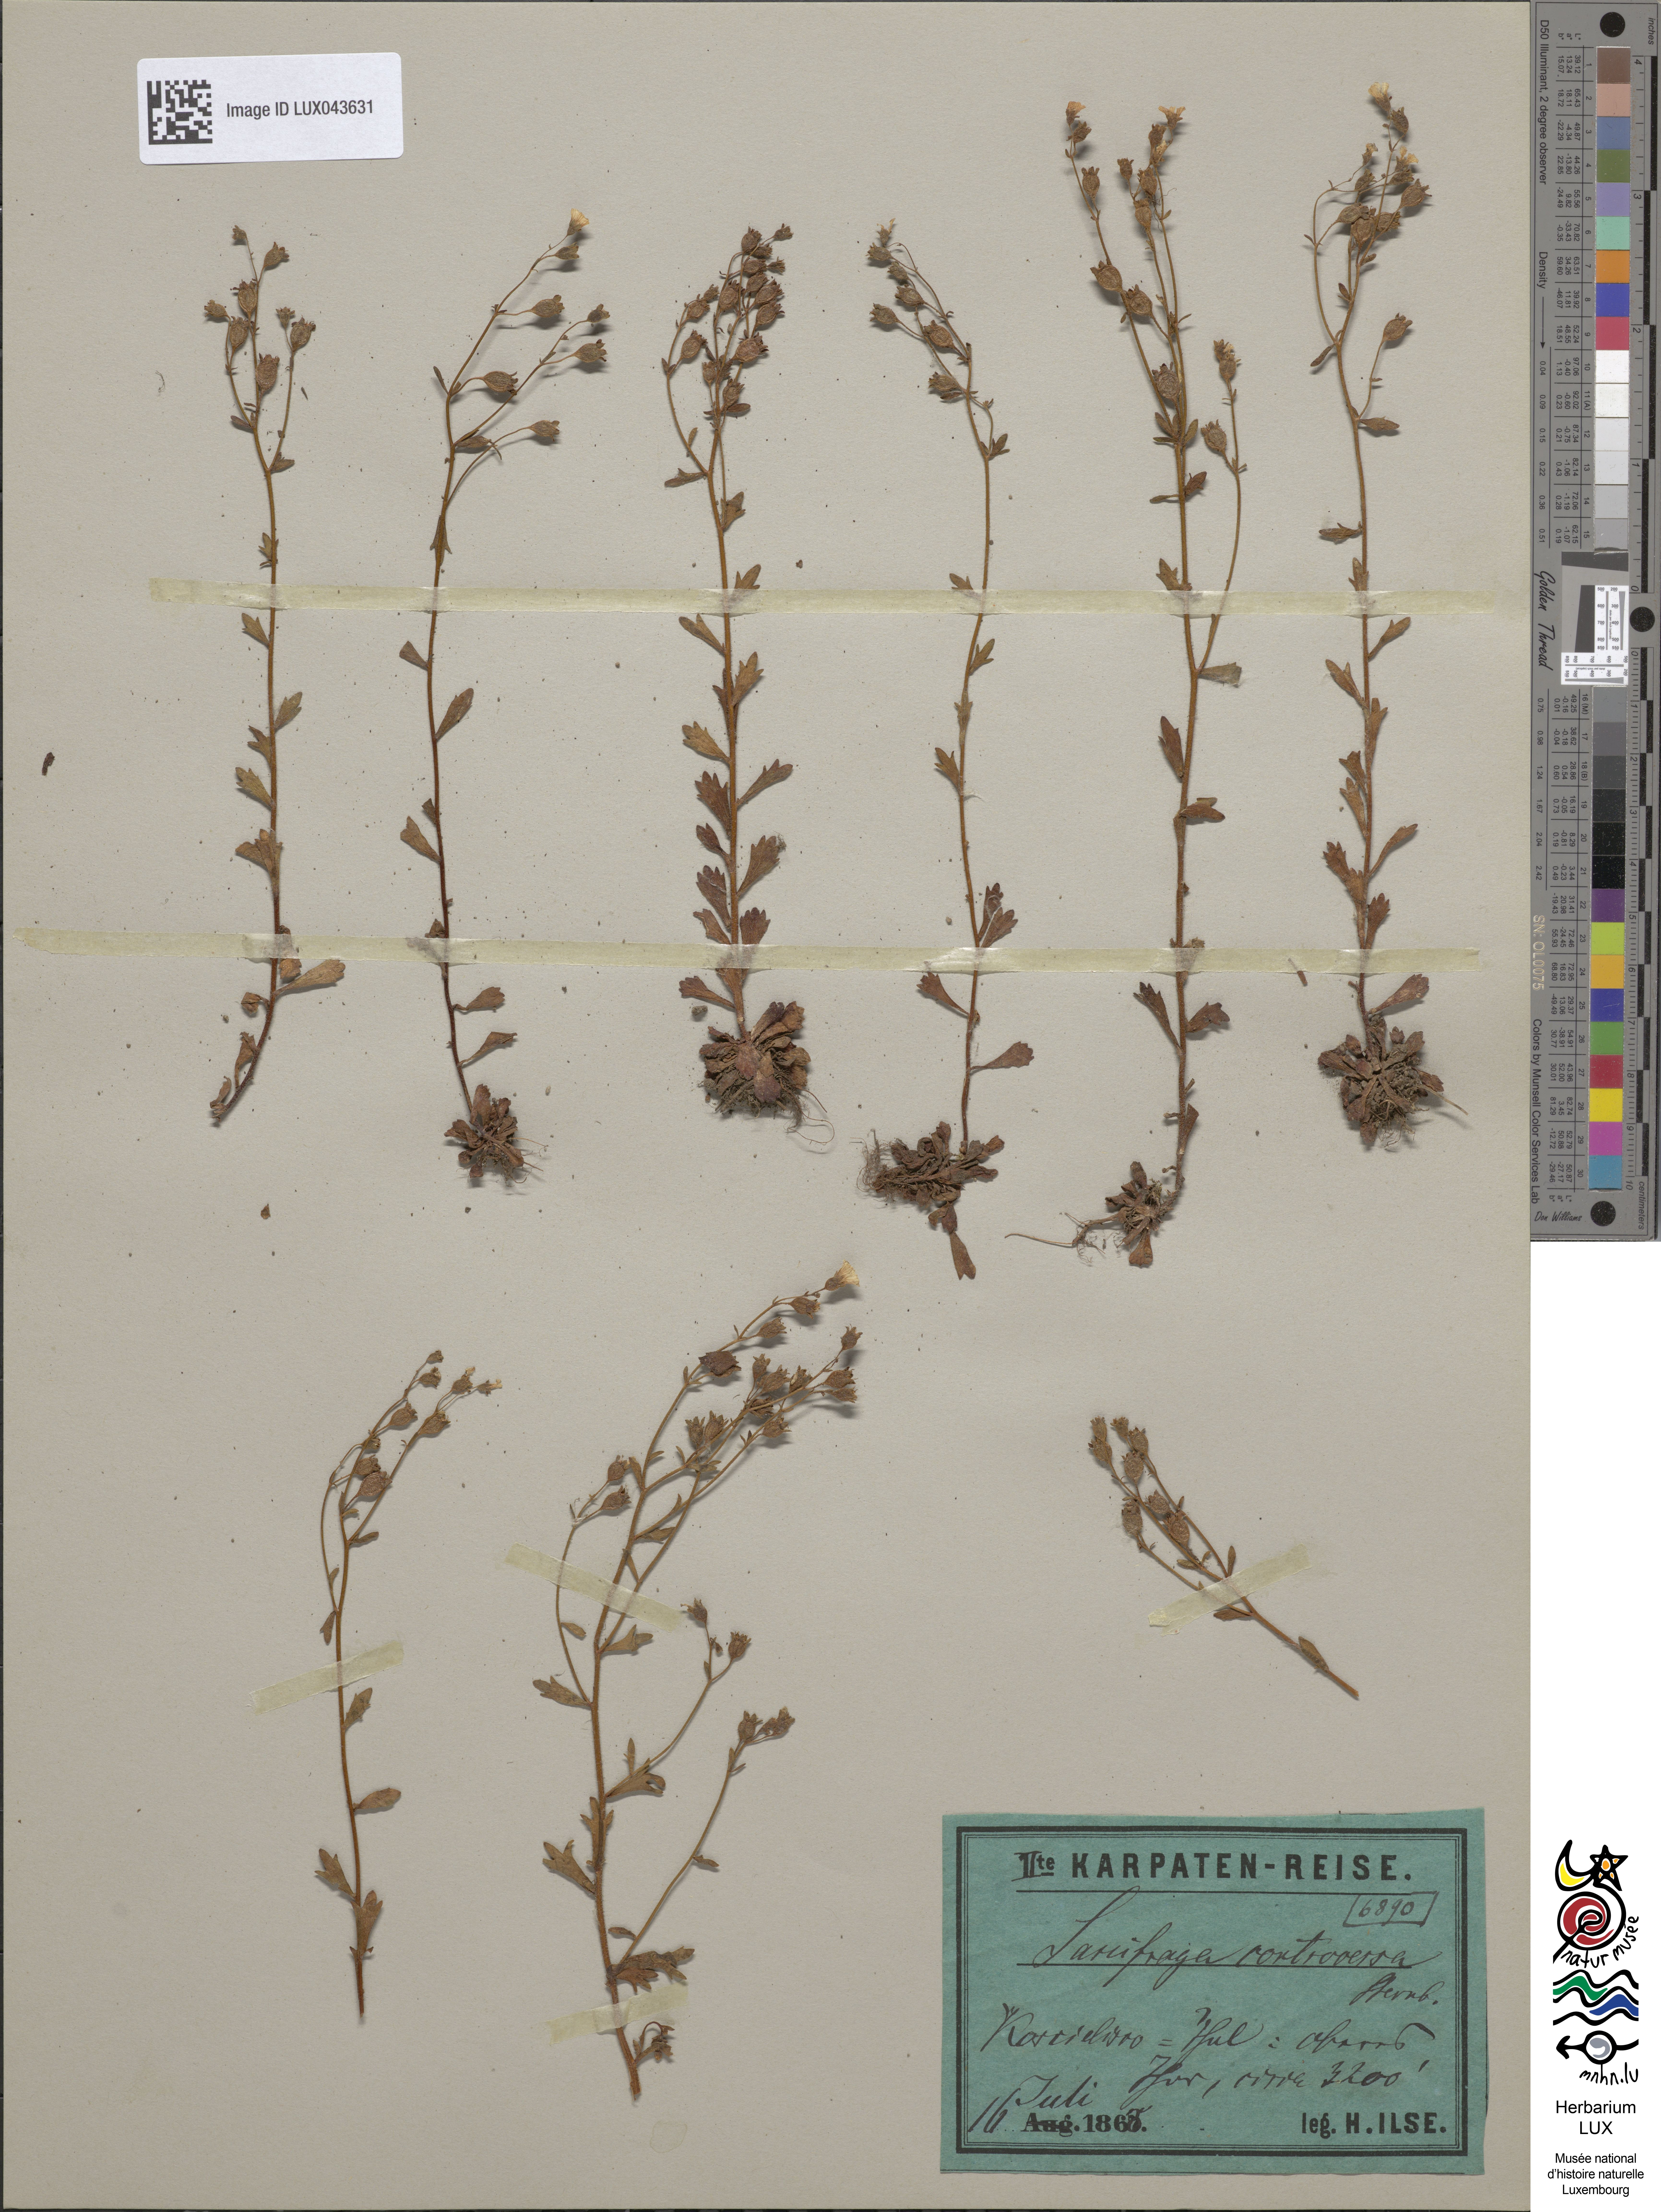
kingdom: Plantae
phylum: Tracheophyta
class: Magnoliopsida
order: Saxifragales
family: Saxifragaceae
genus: Saxifraga
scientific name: Saxifraga adscendens
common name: Ascending saxifrage
